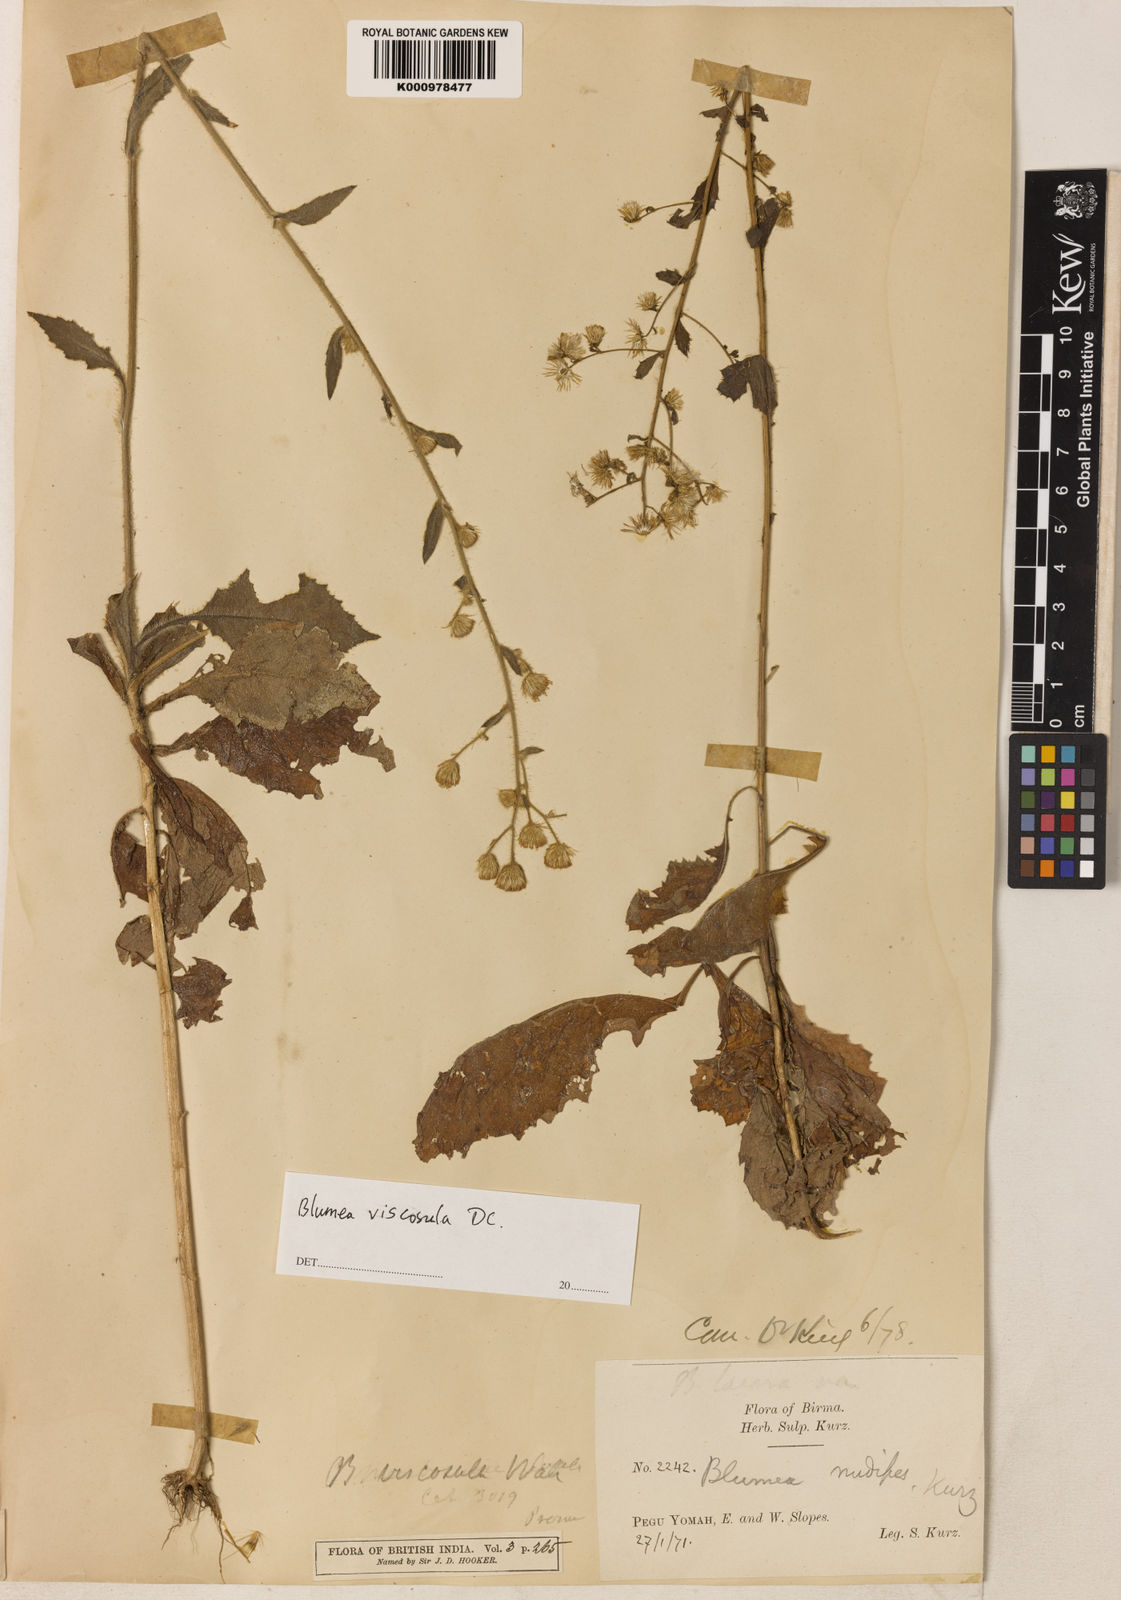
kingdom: Plantae
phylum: Tracheophyta
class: Magnoliopsida
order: Asterales
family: Asteraceae
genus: Blumea
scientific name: Blumea
